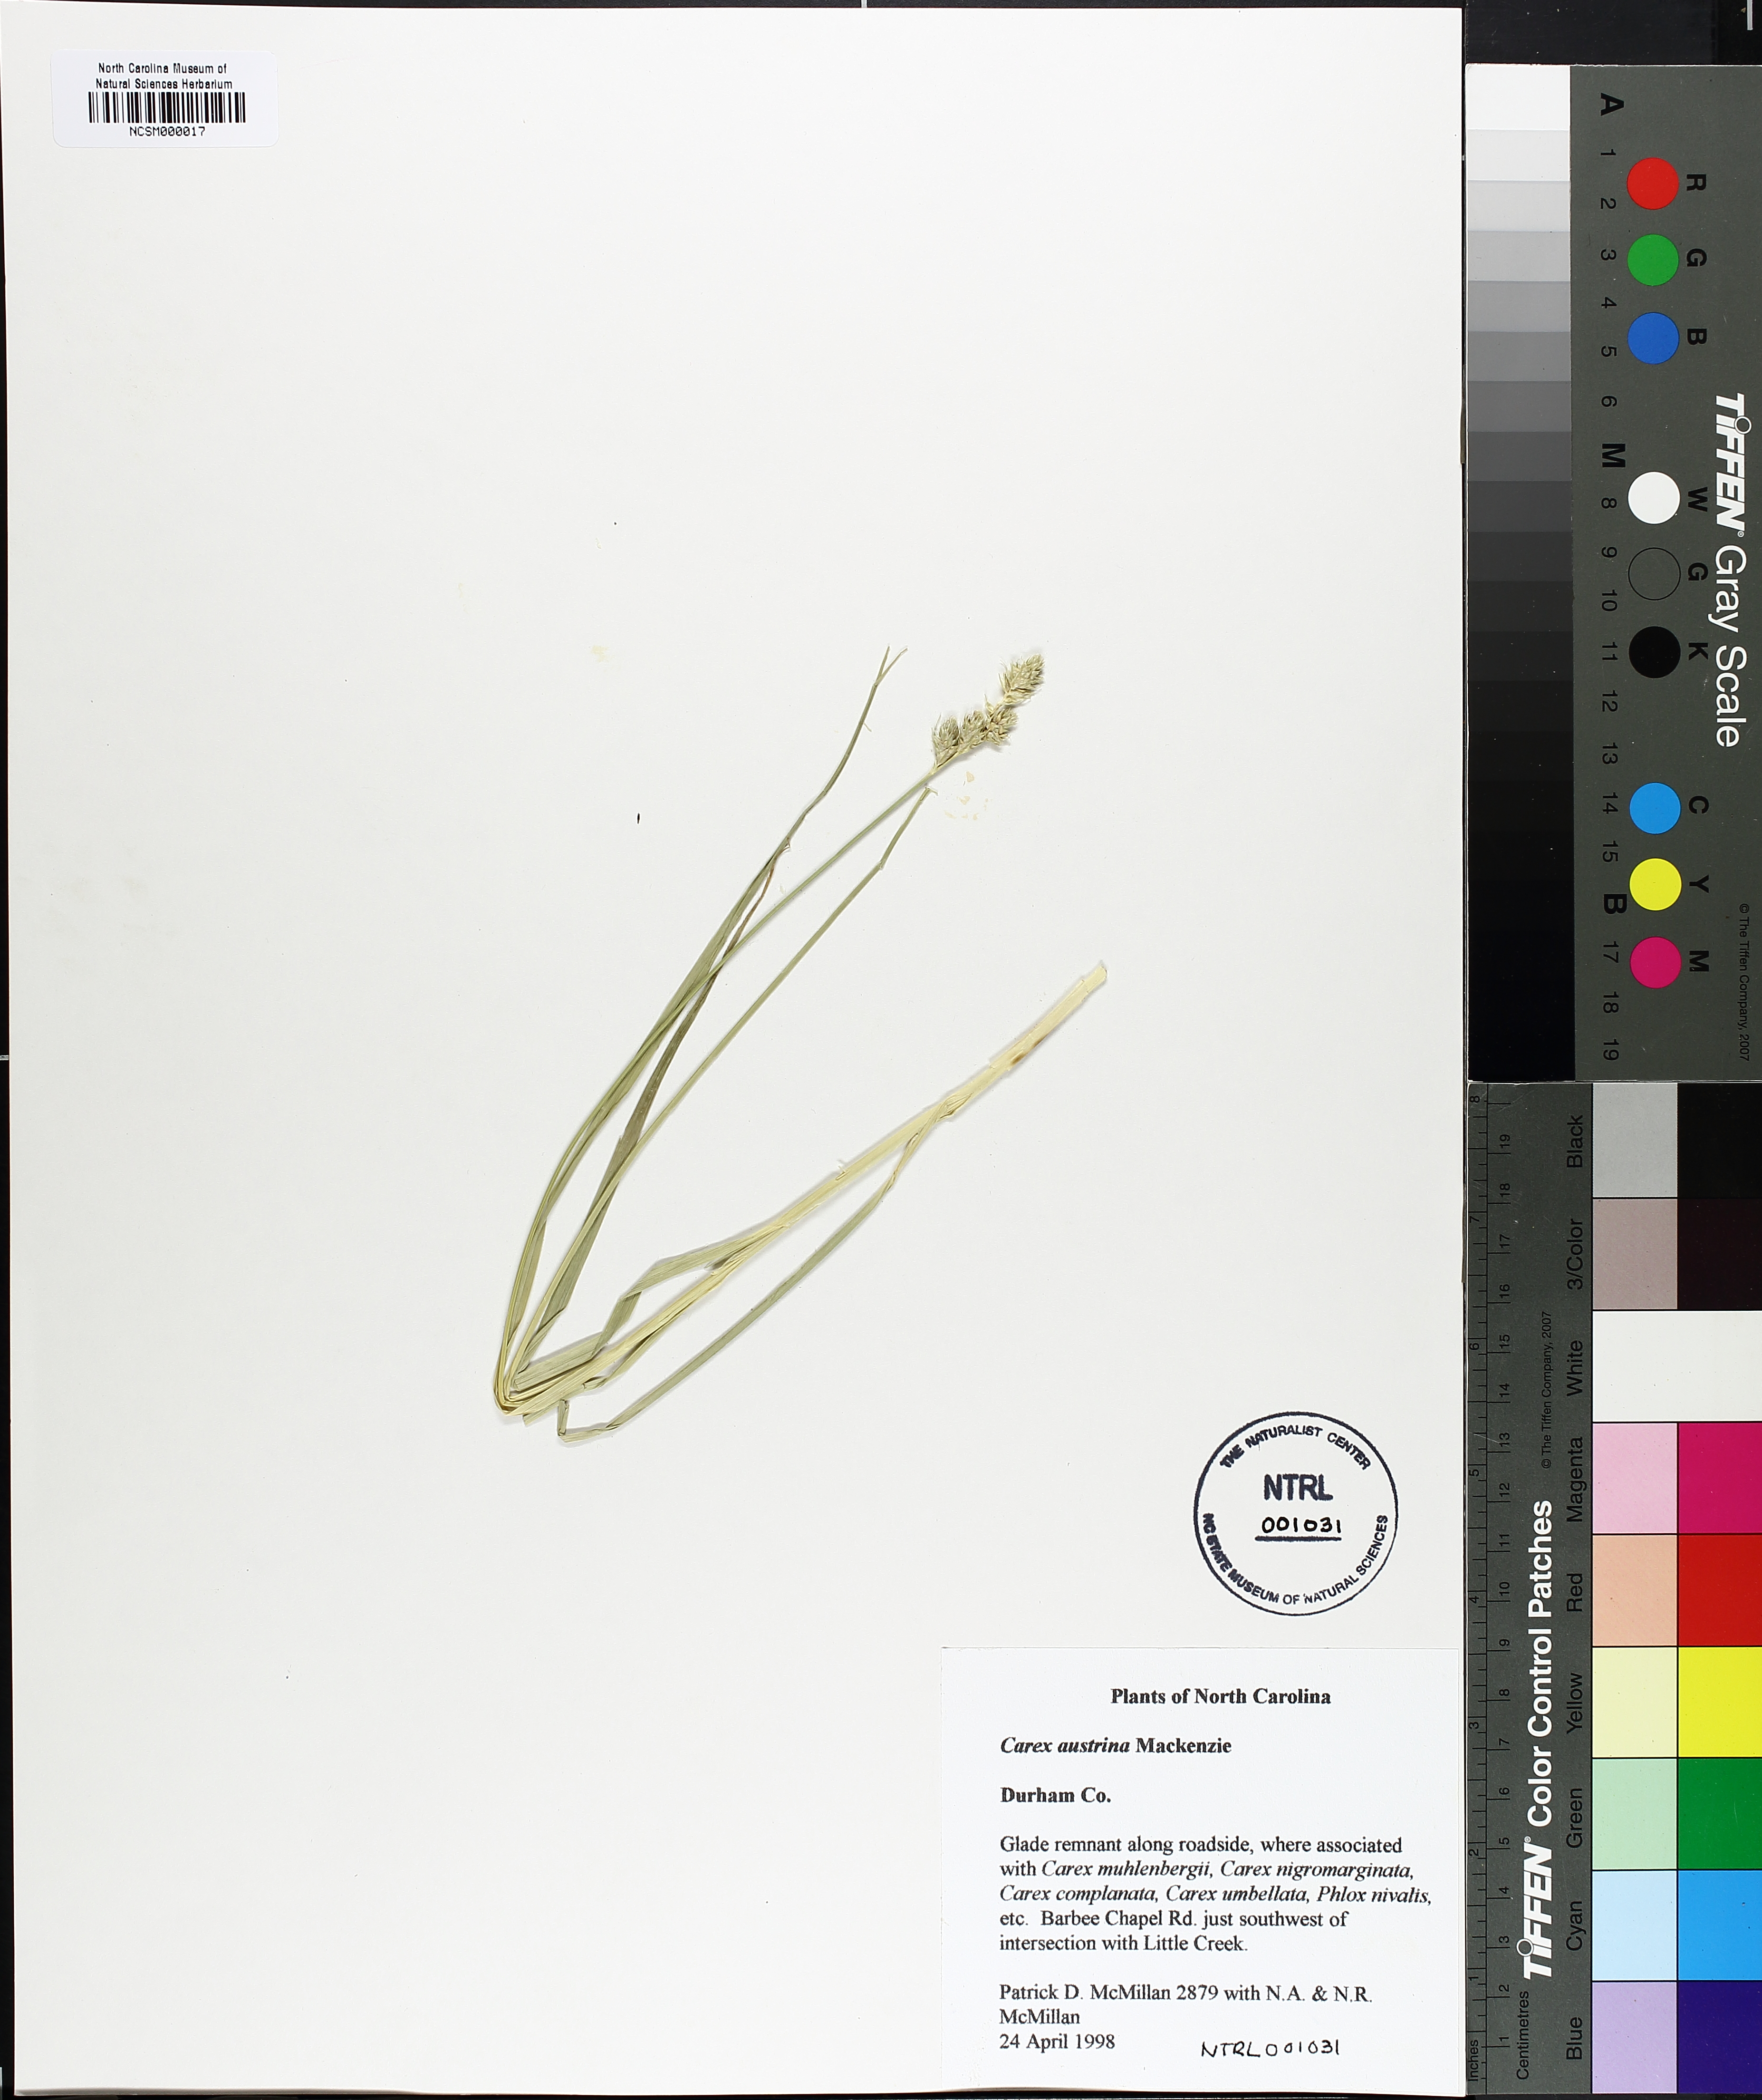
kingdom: Plantae
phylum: Tracheophyta
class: Liliopsida
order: Poales
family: Cyperaceae
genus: Carex
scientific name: Carex austrina
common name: Southern sedge
